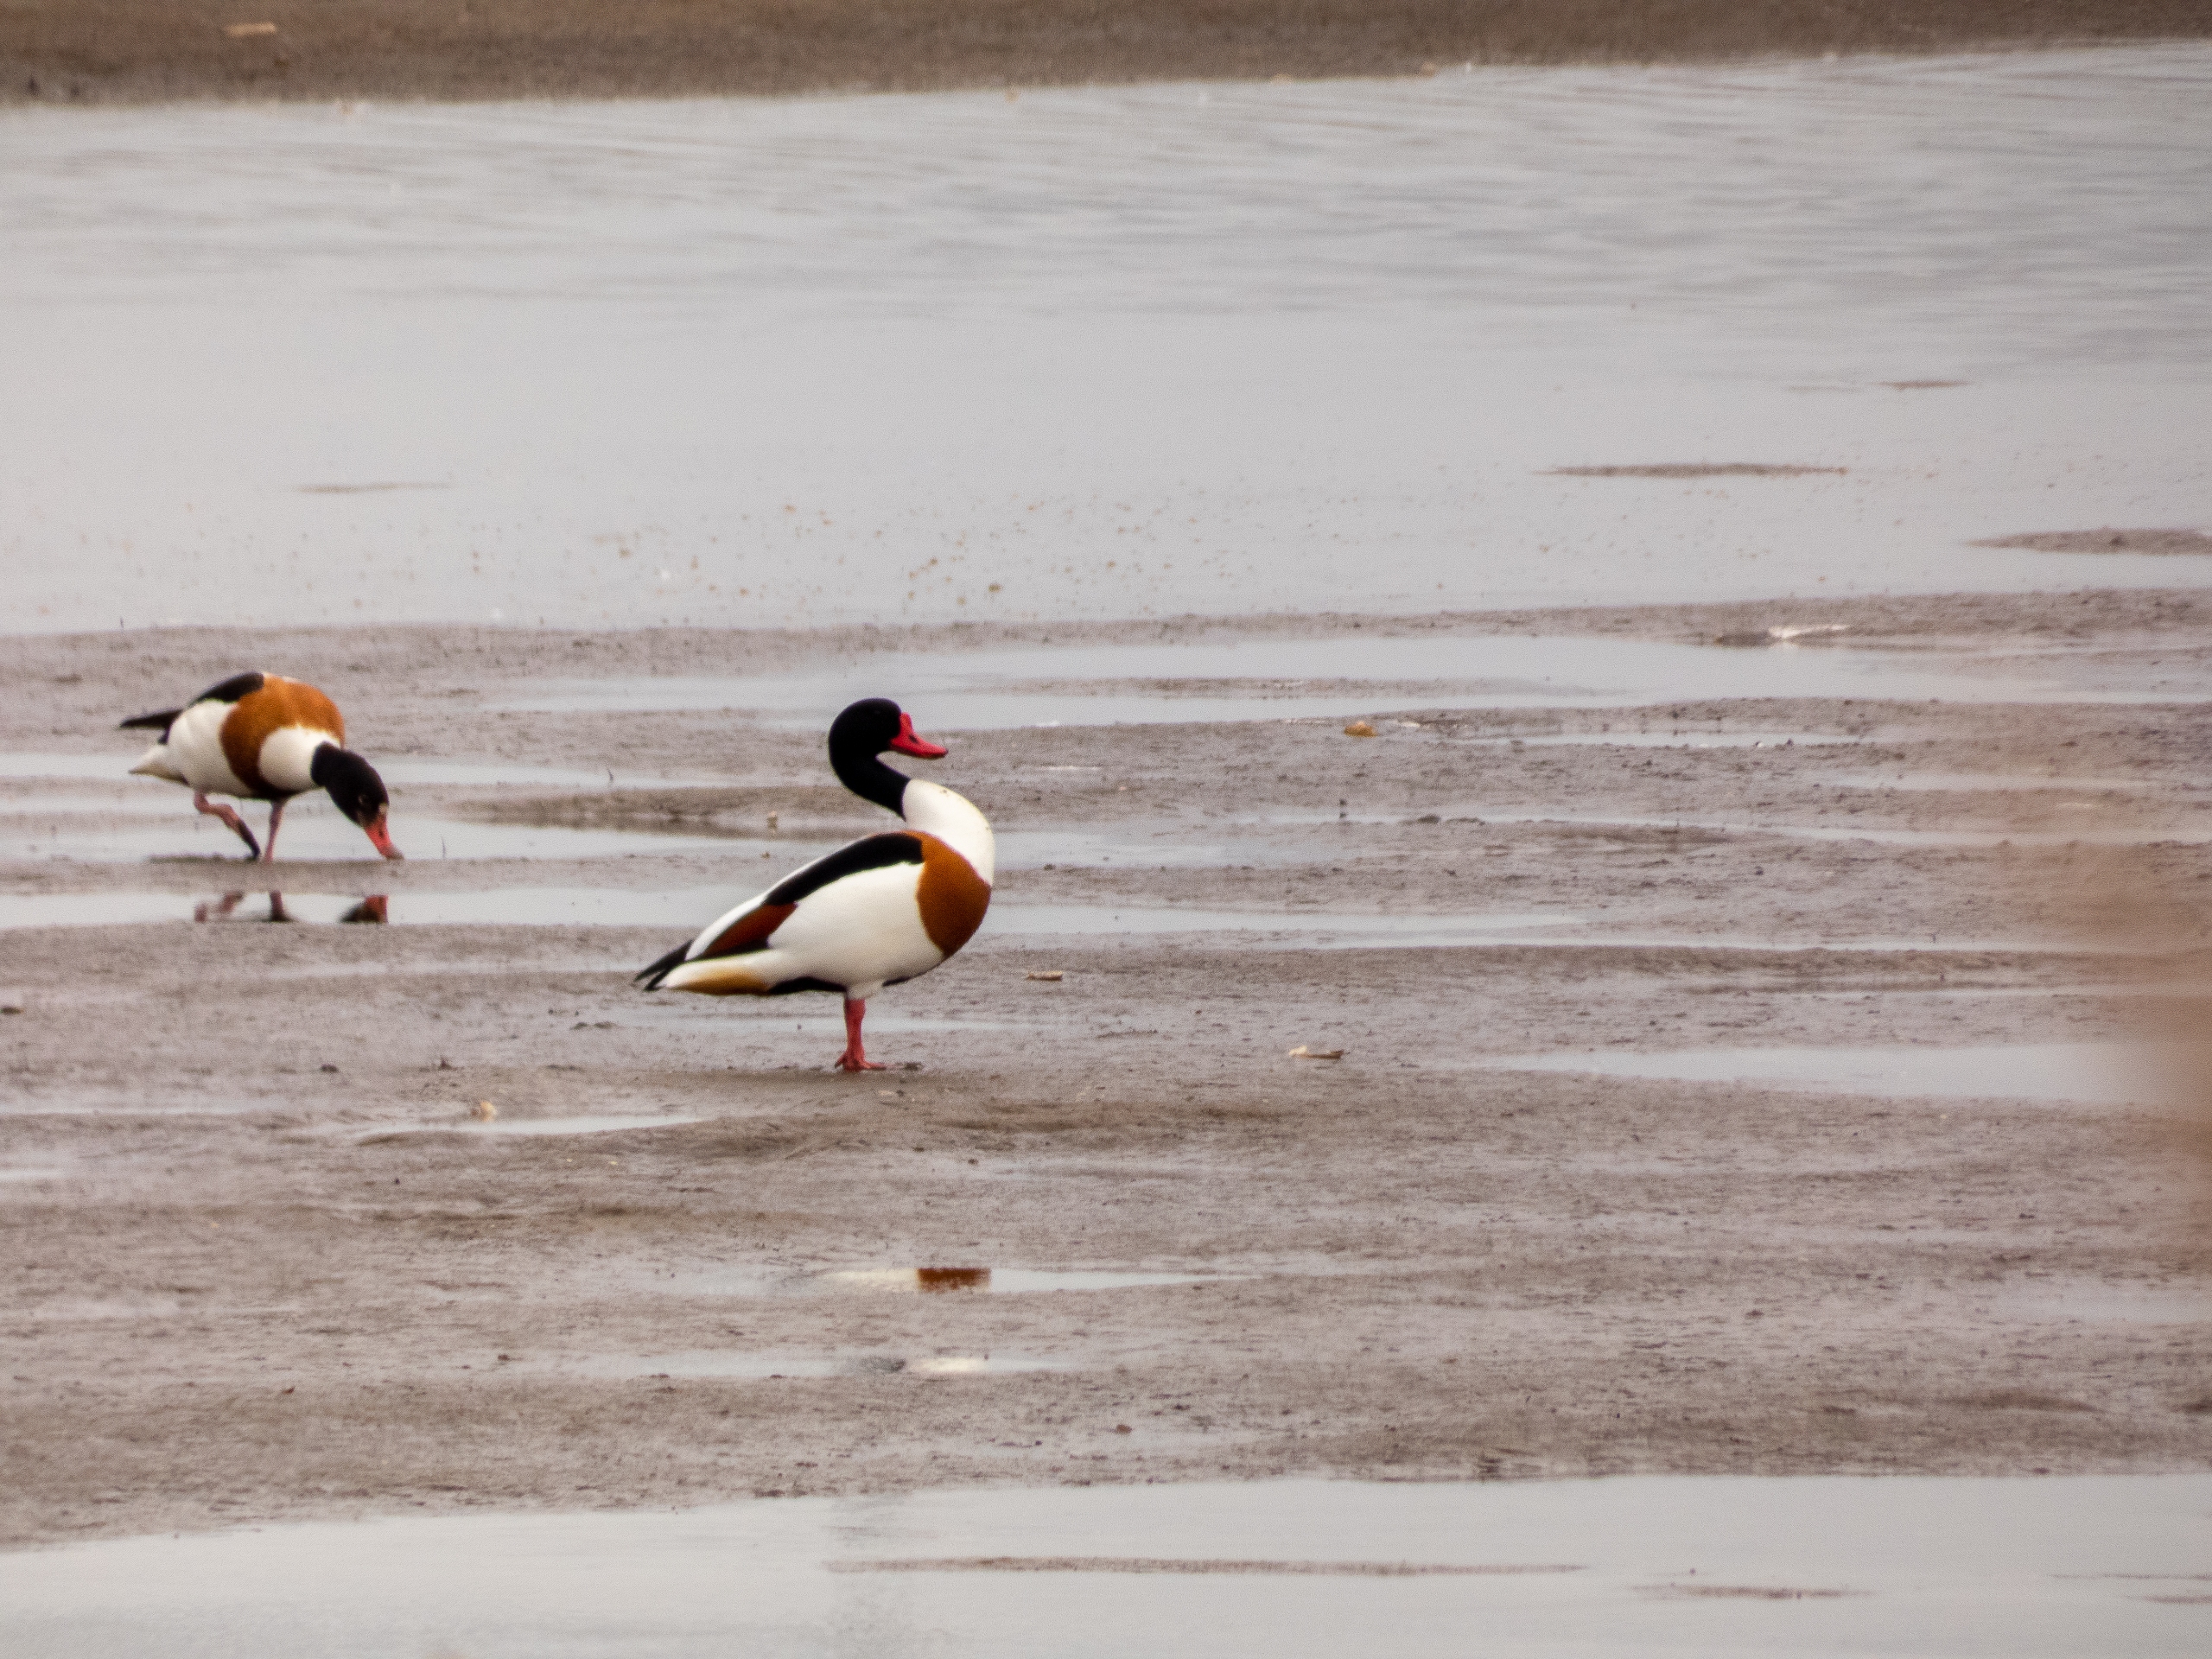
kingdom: Animalia
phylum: Chordata
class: Aves
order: Anseriformes
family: Anatidae
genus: Tadorna
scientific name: Tadorna tadorna
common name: Gravand
